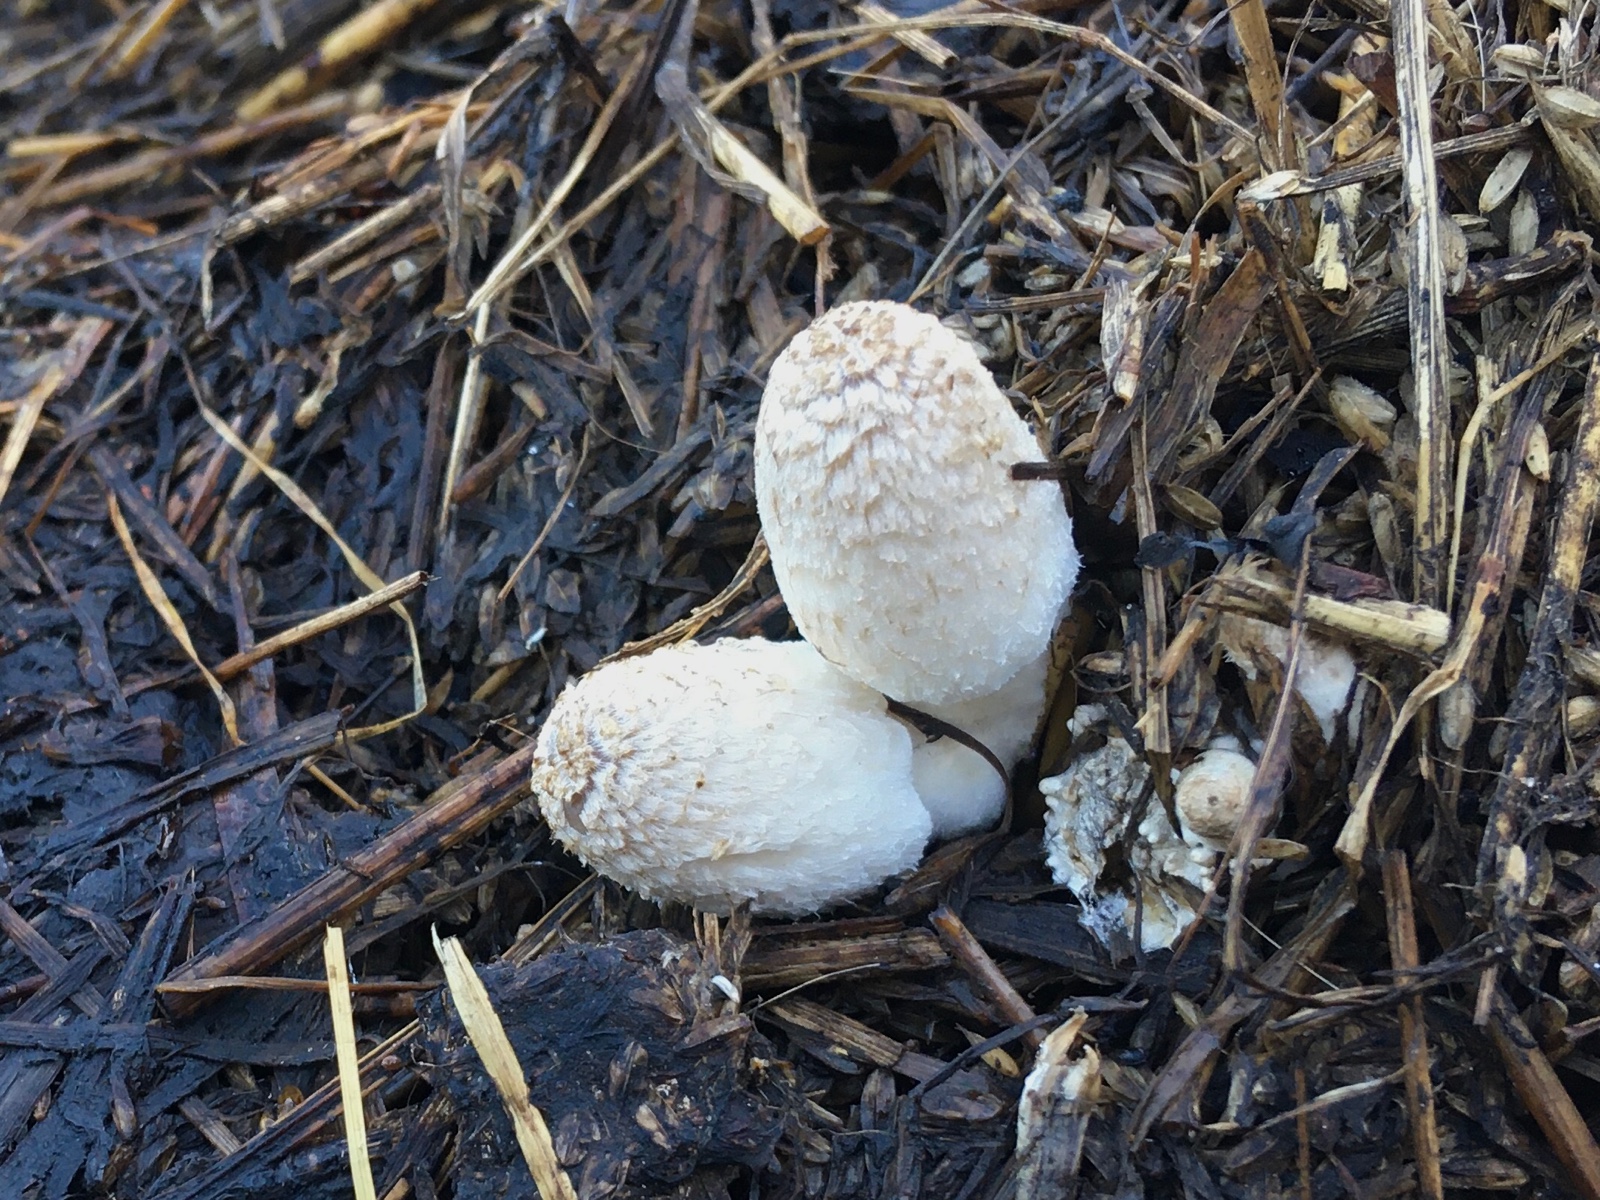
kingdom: Fungi
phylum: Basidiomycota
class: Agaricomycetes
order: Agaricales
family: Psathyrellaceae
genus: Coprinopsis
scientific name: Coprinopsis
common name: blækhat
